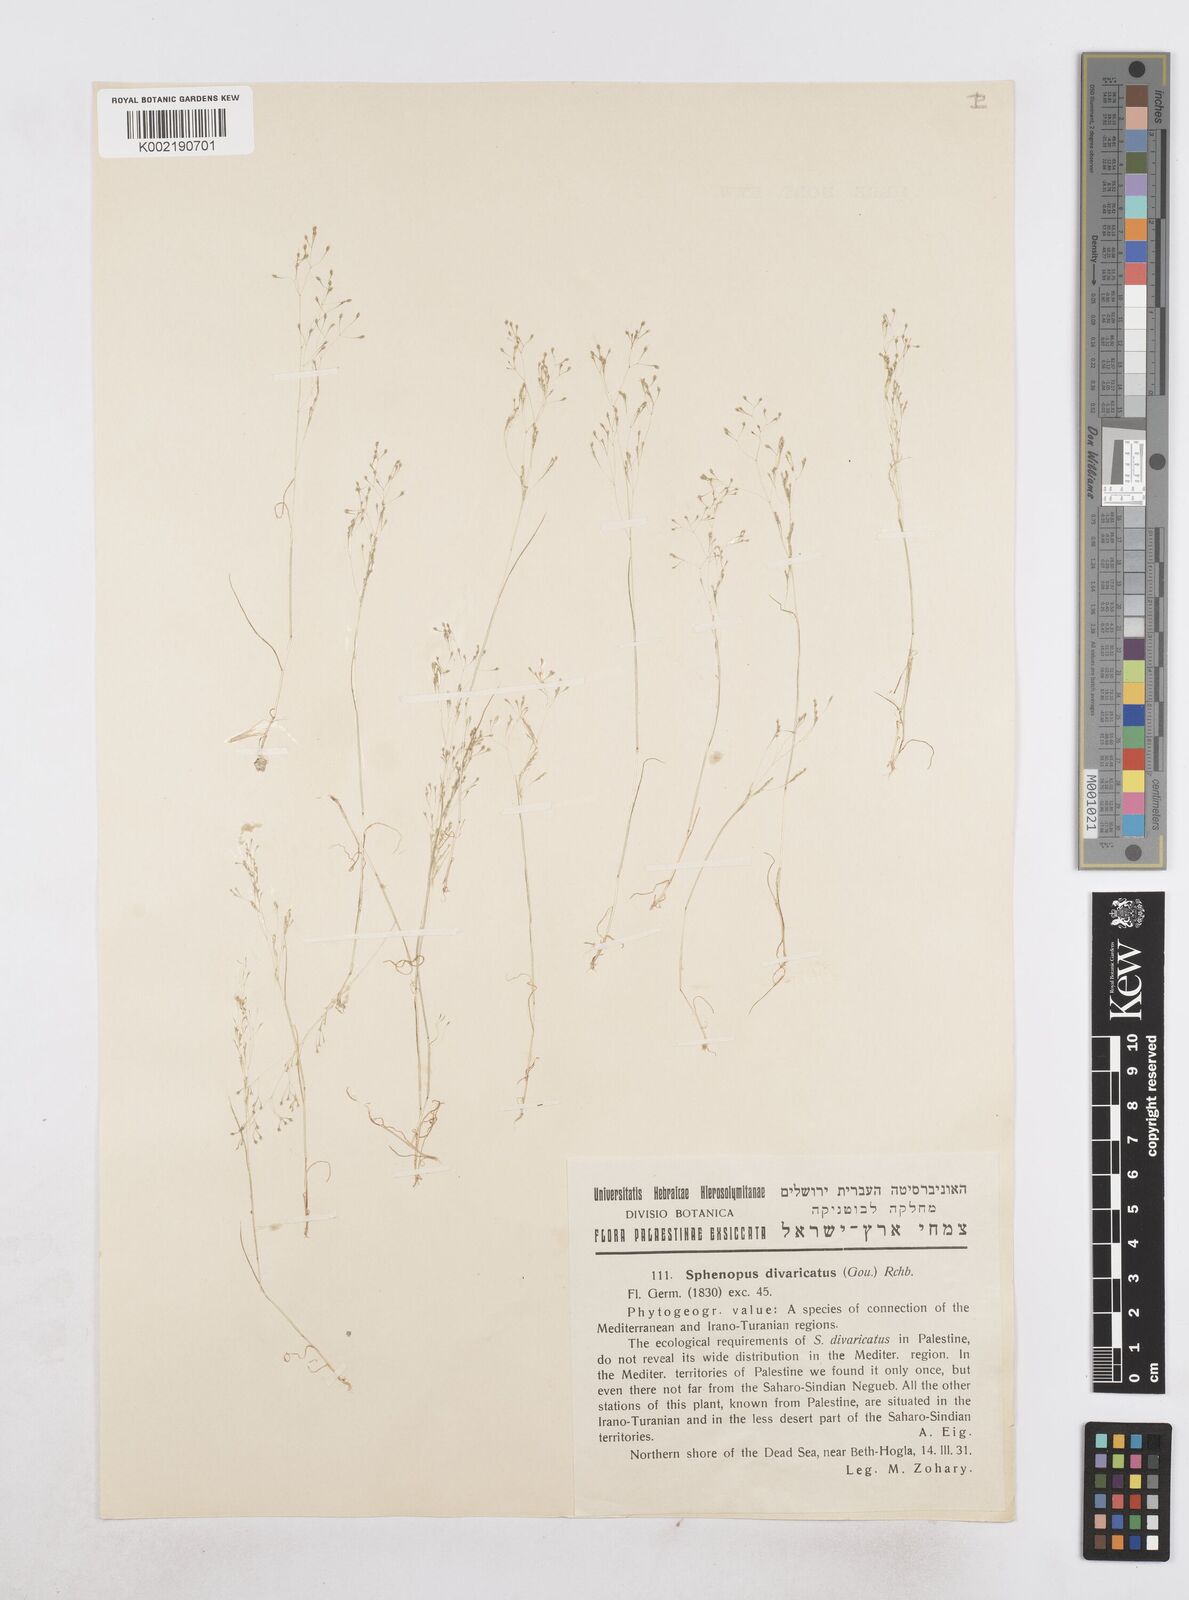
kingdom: Plantae
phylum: Tracheophyta
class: Liliopsida
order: Poales
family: Poaceae
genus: Sphenopus
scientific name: Sphenopus divaricatus
